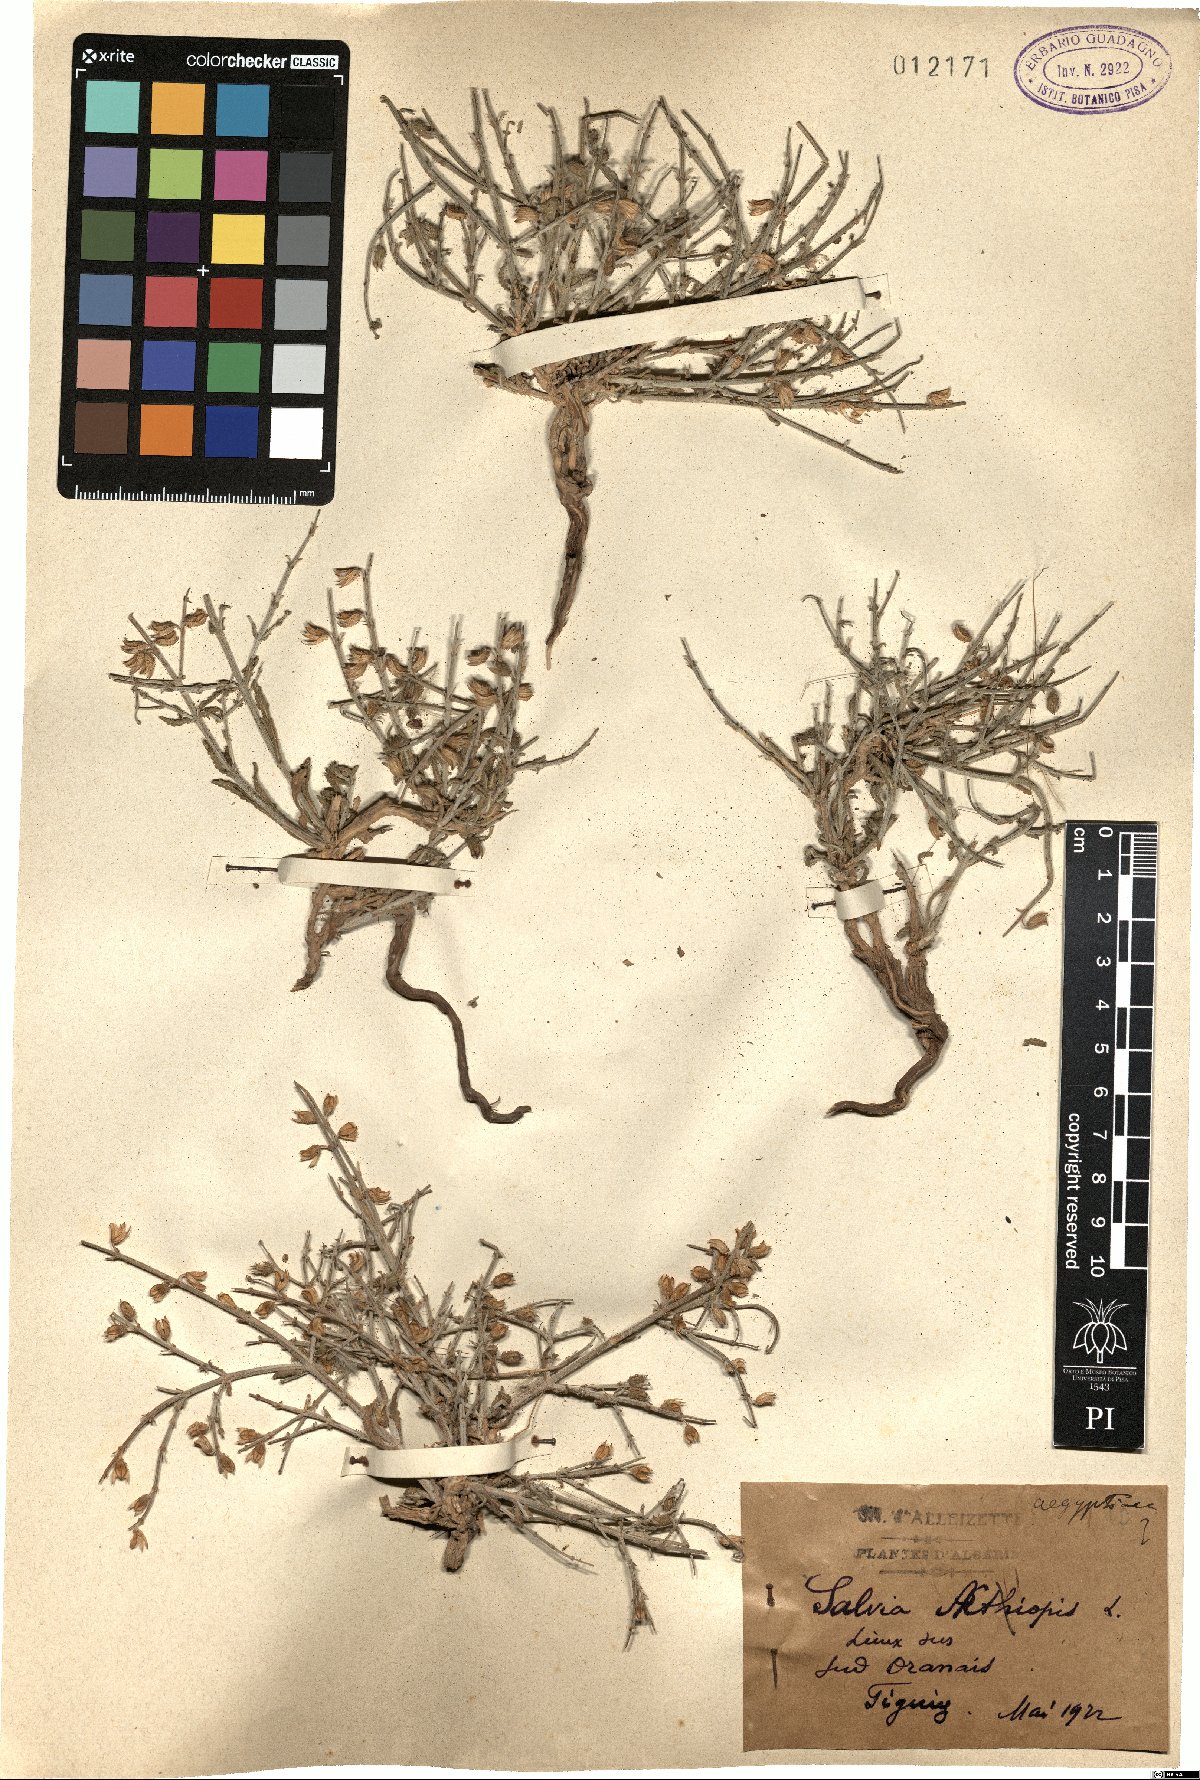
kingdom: Plantae
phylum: Tracheophyta
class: Magnoliopsida
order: Lamiales
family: Lamiaceae
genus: Salvia
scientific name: Salvia aethiopis
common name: Mediterranean sage
